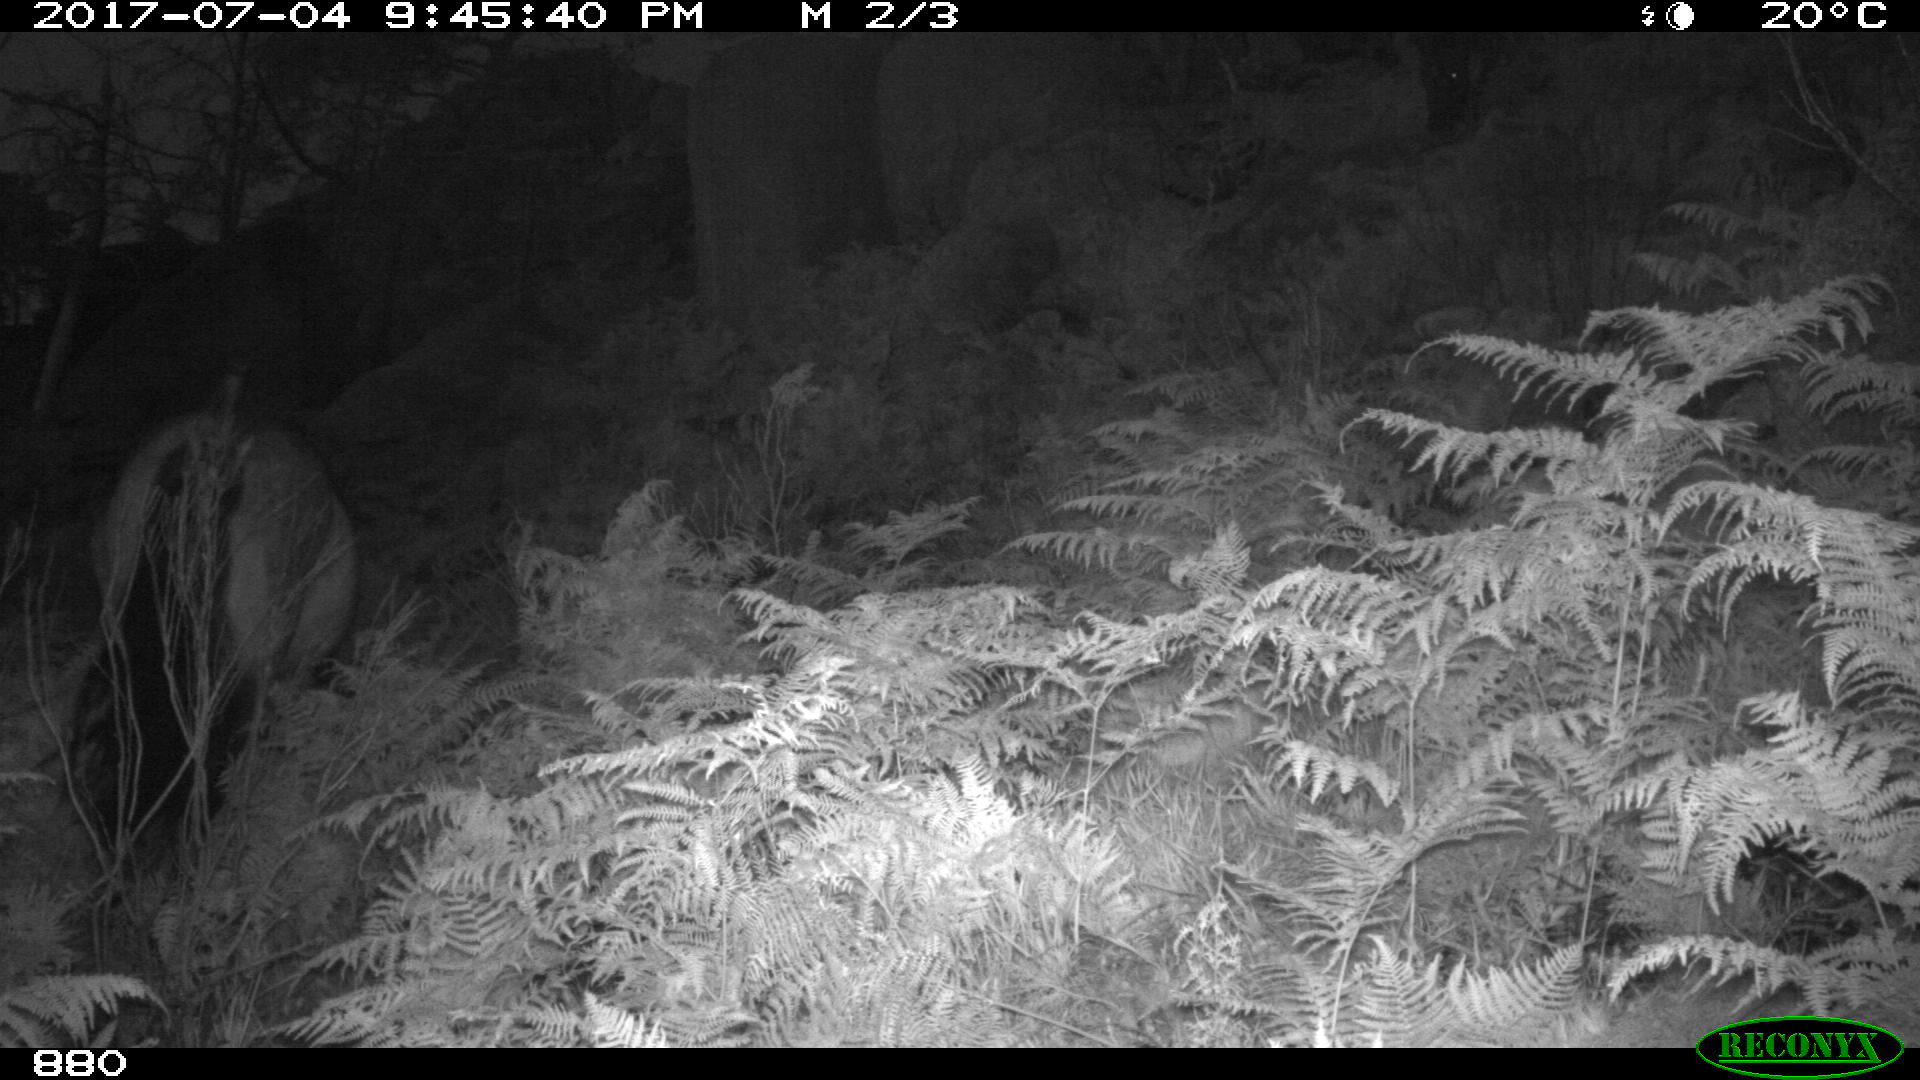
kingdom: Animalia
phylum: Chordata
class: Mammalia
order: Perissodactyla
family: Equidae
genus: Equus
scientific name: Equus caballus
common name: Horse
